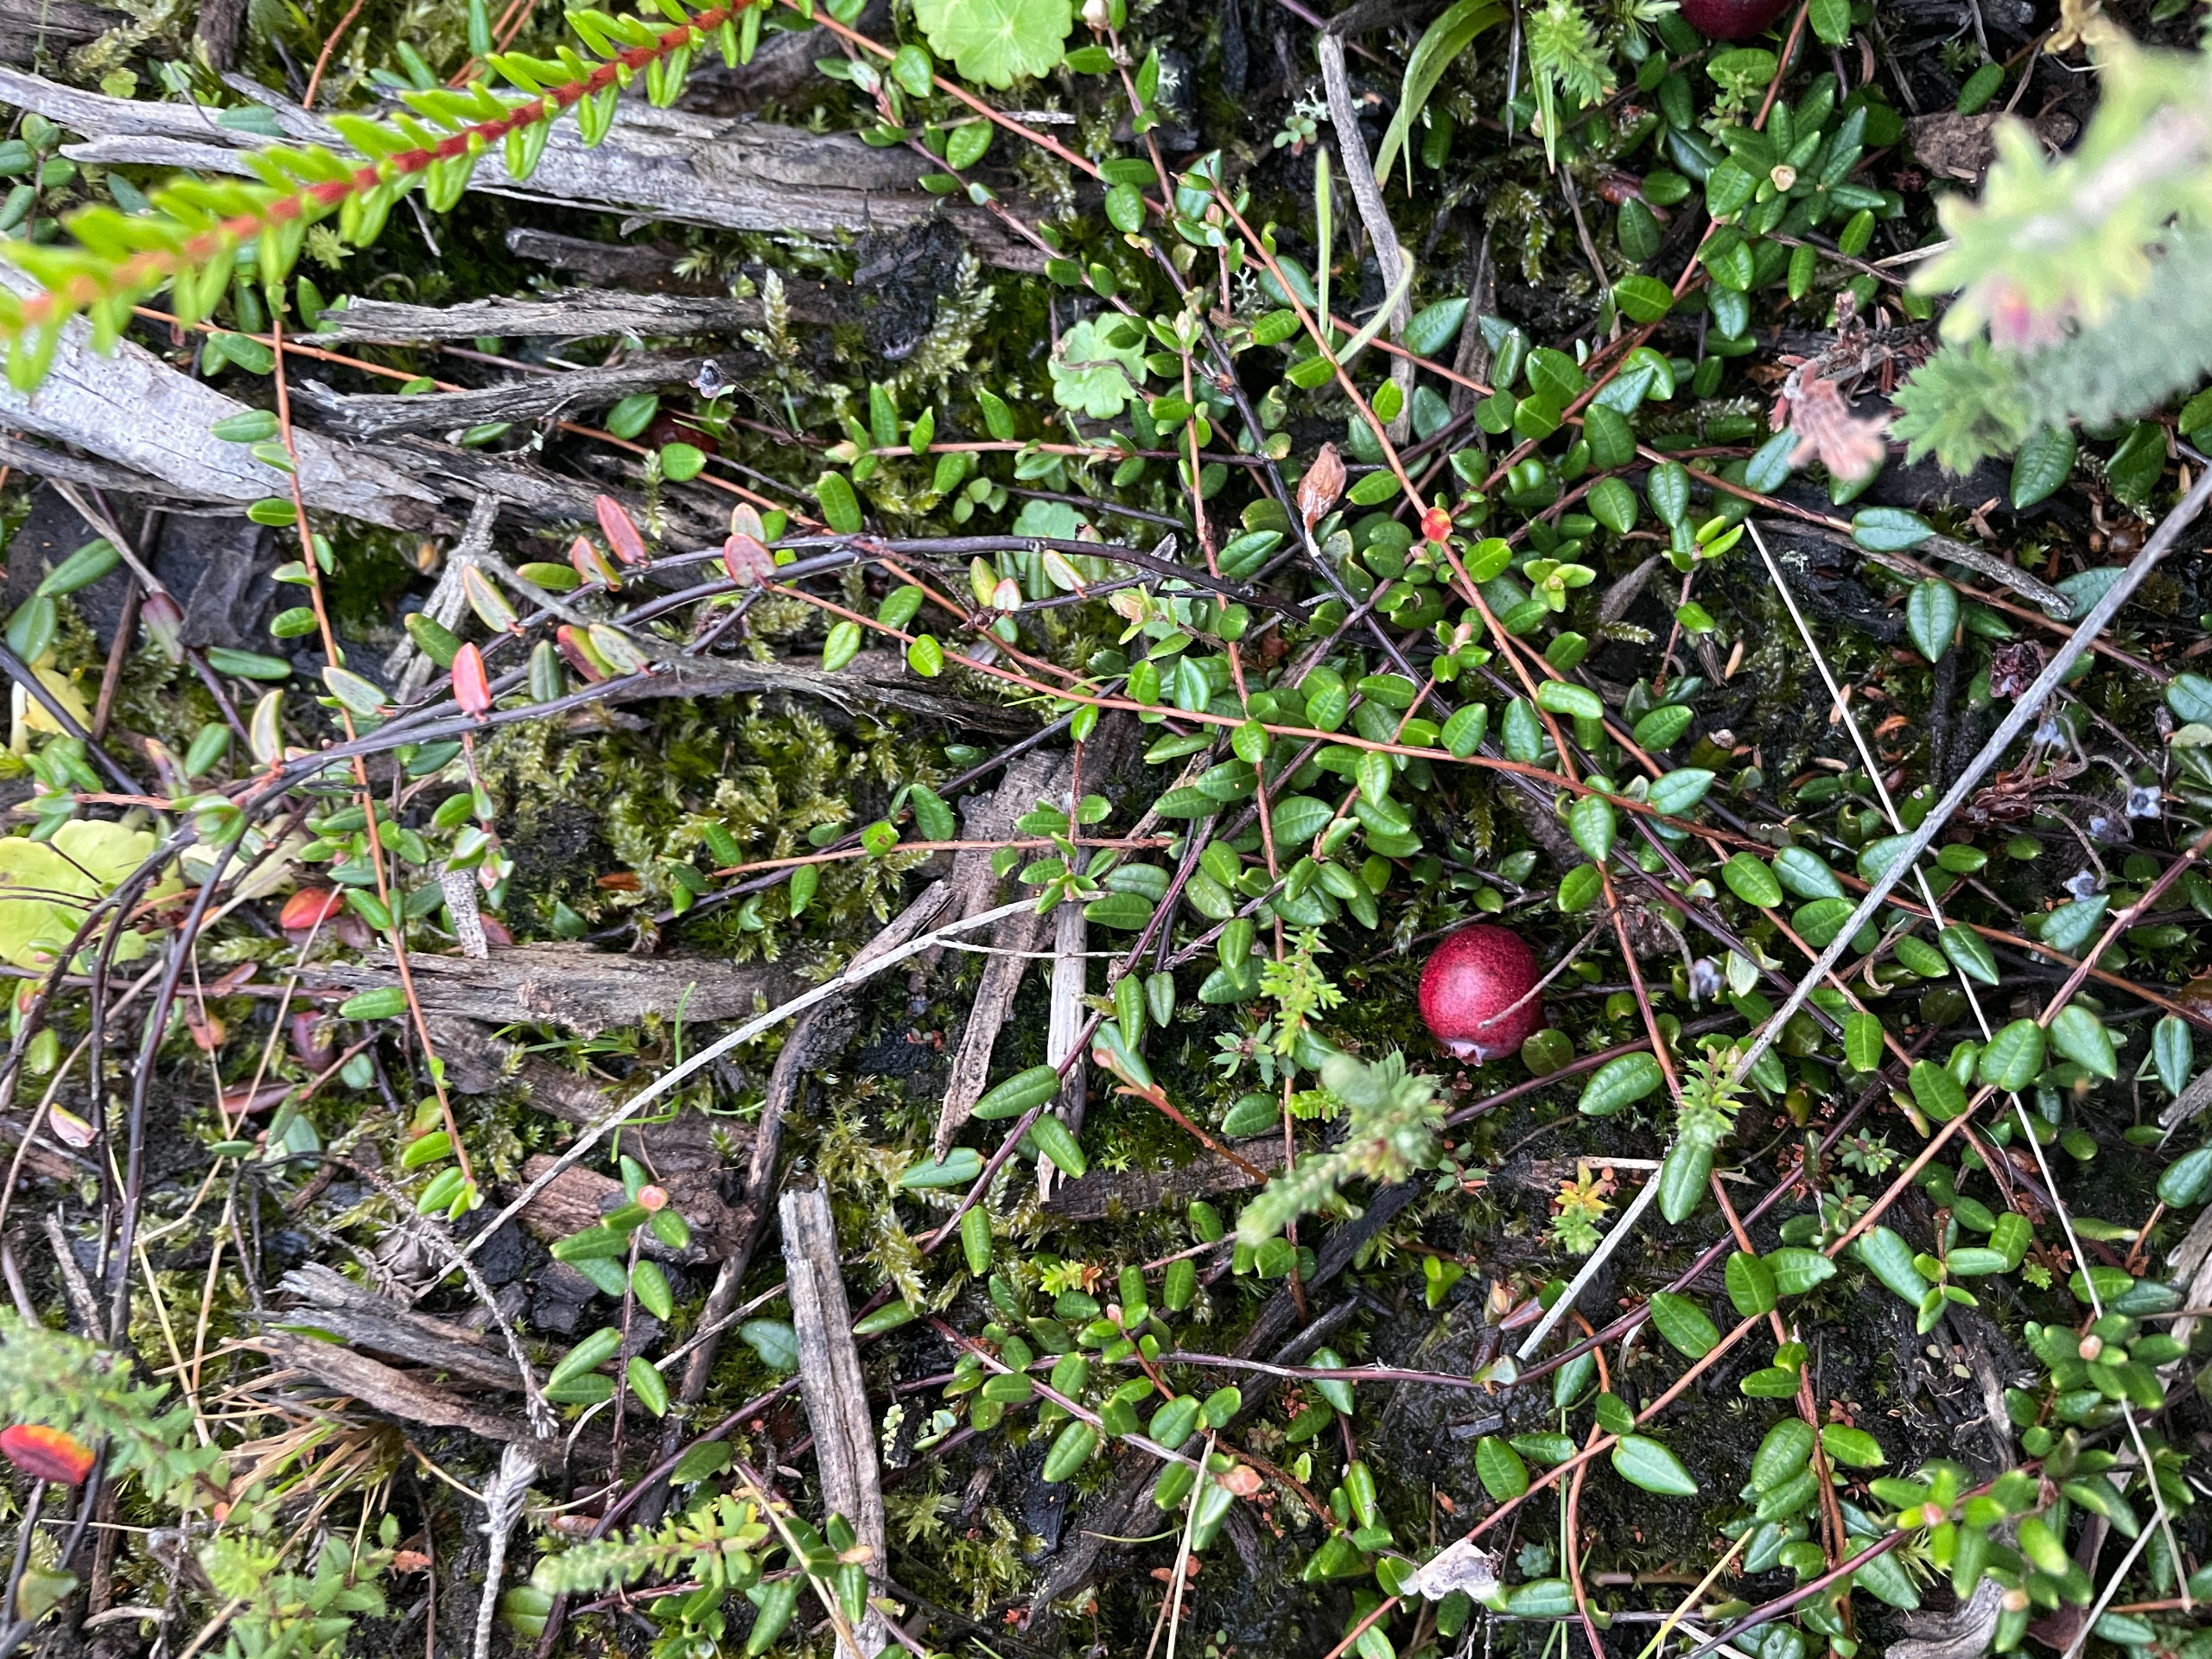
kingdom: Plantae
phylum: Tracheophyta
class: Magnoliopsida
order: Ericales
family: Ericaceae
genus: Vaccinium
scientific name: Vaccinium oxycoccos
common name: Tranebær
